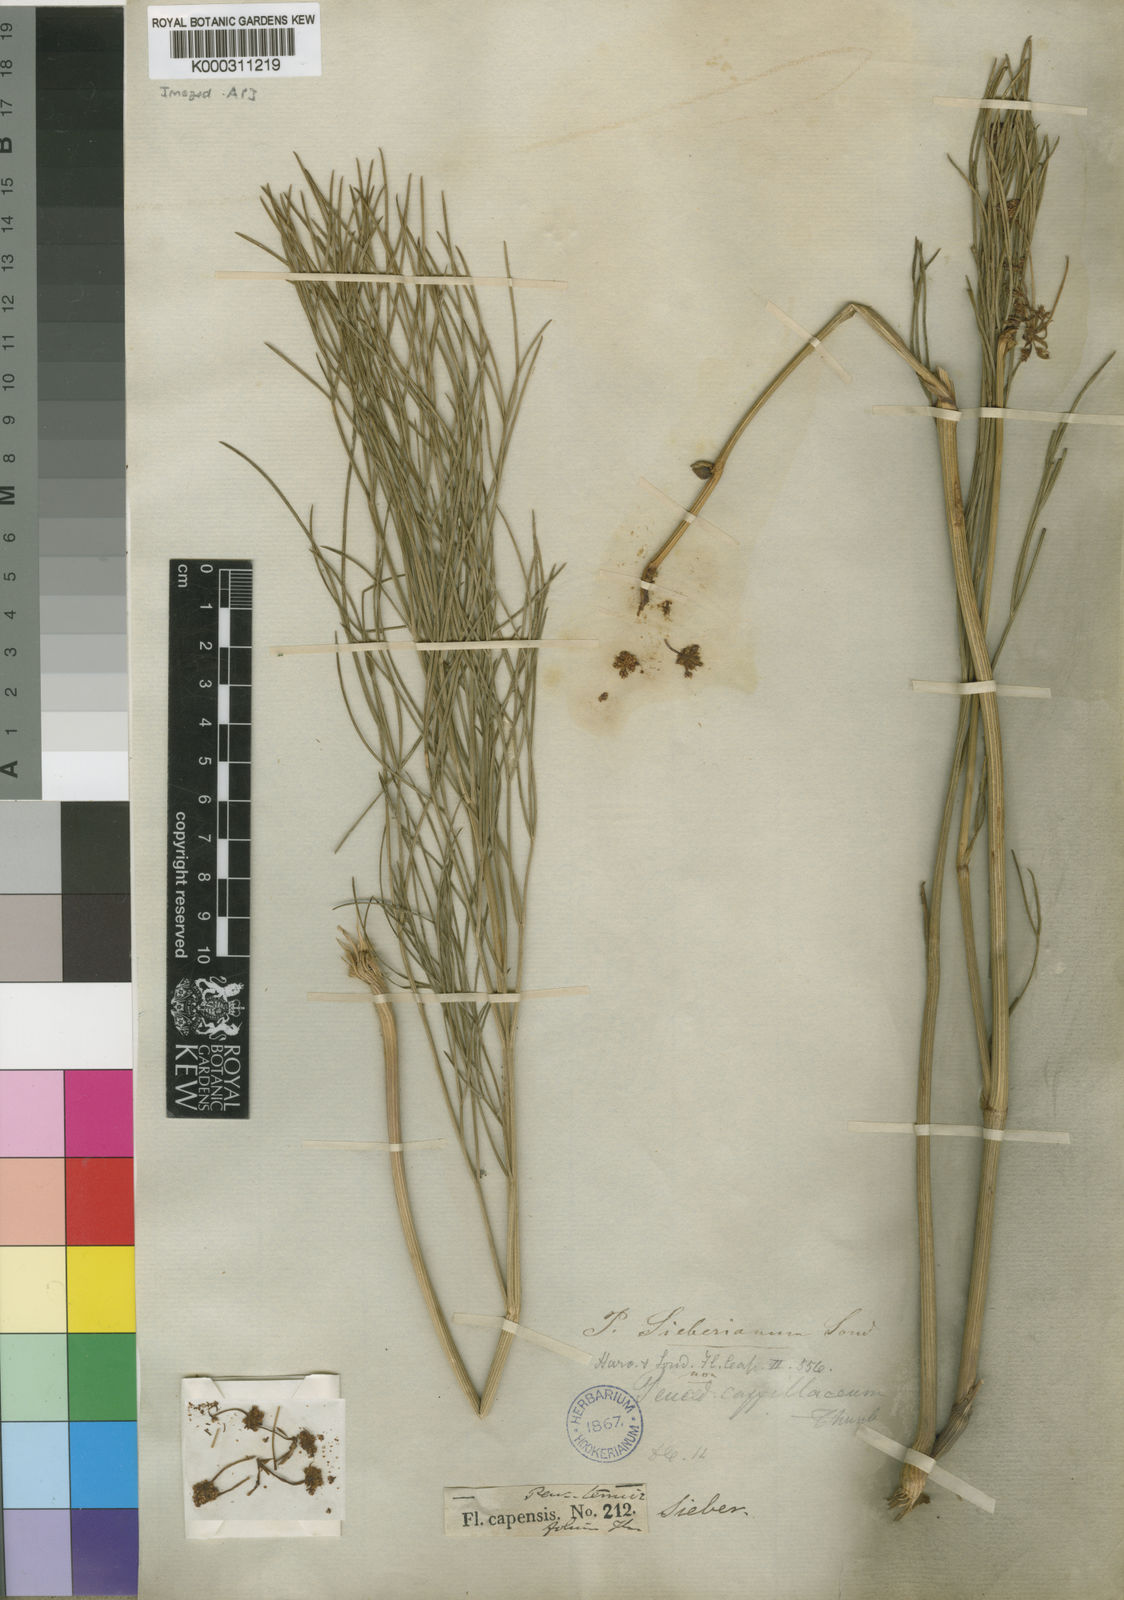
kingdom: Plantae
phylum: Tracheophyta
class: Magnoliopsida
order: Apiales
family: Apiaceae
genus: Nanobubon
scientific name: Nanobubon strictum
